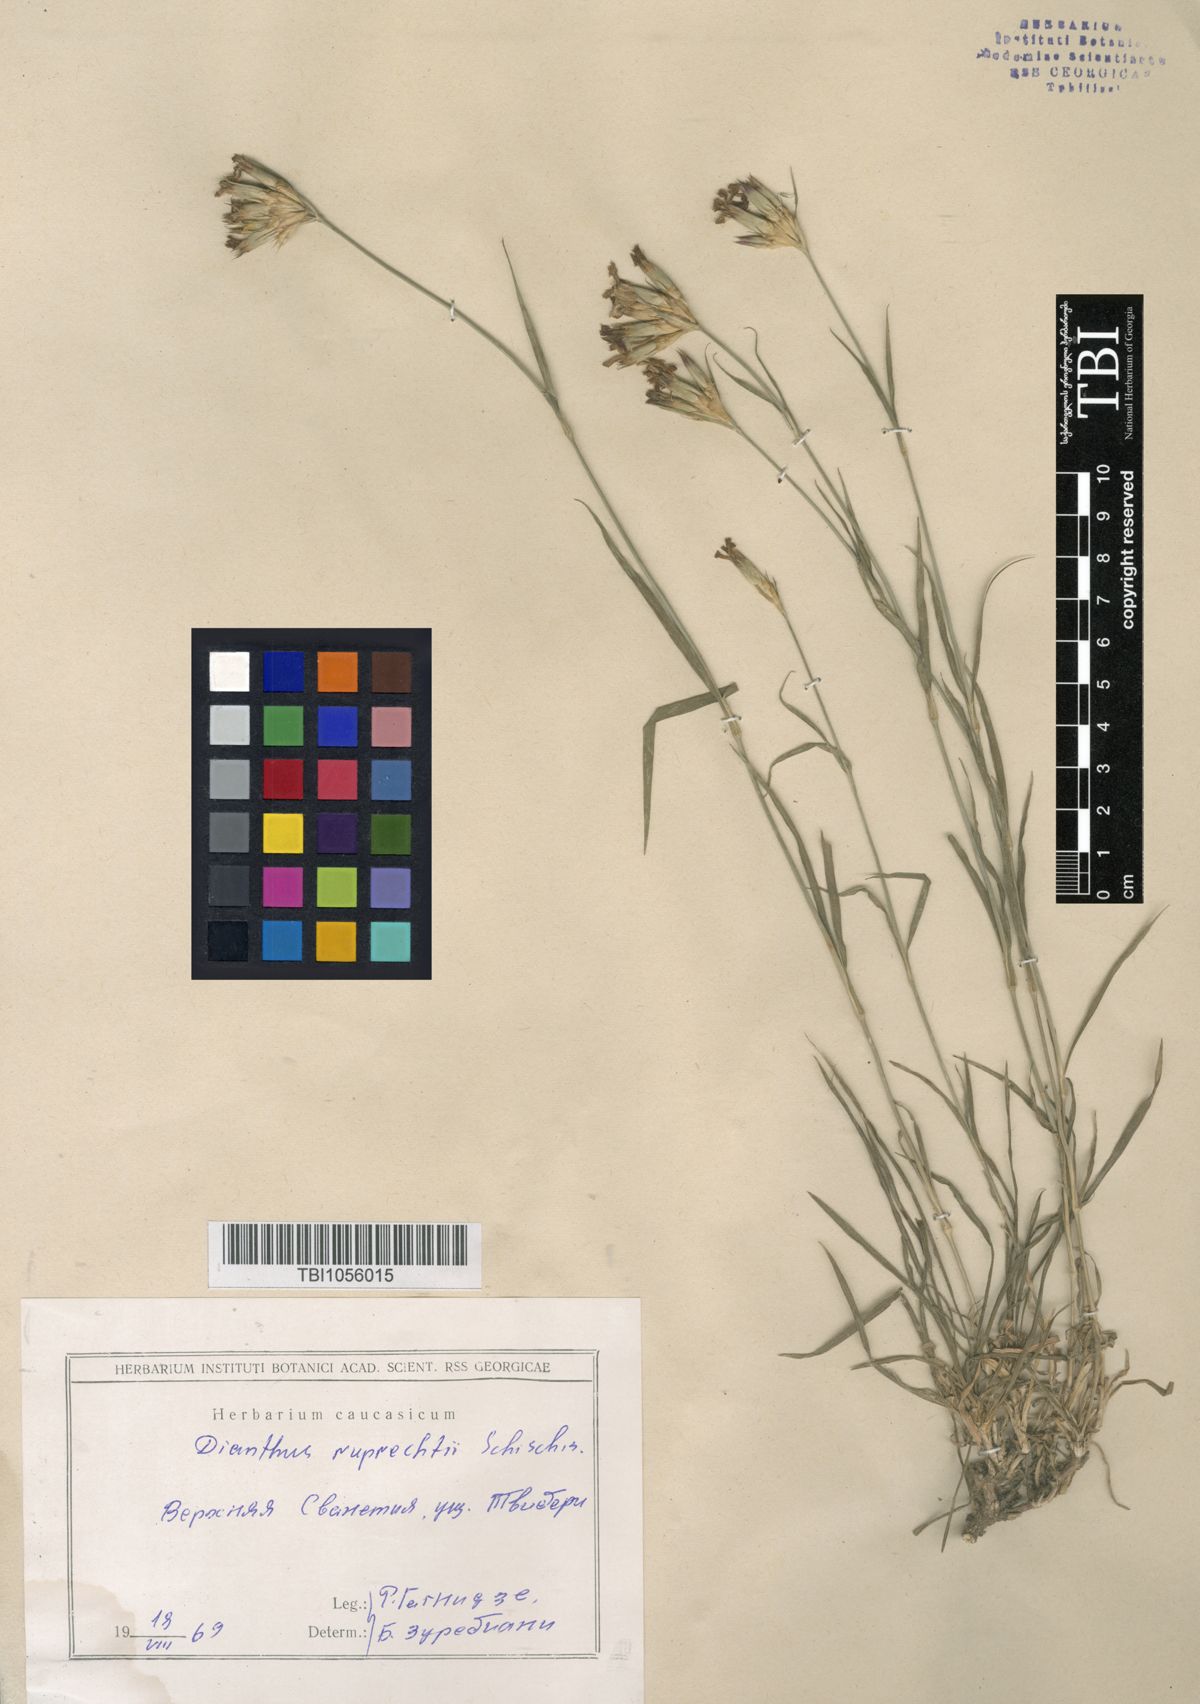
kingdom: Plantae
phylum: Tracheophyta
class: Magnoliopsida
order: Caryophyllales
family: Caryophyllaceae
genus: Dianthus
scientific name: Dianthus ruprechtii
